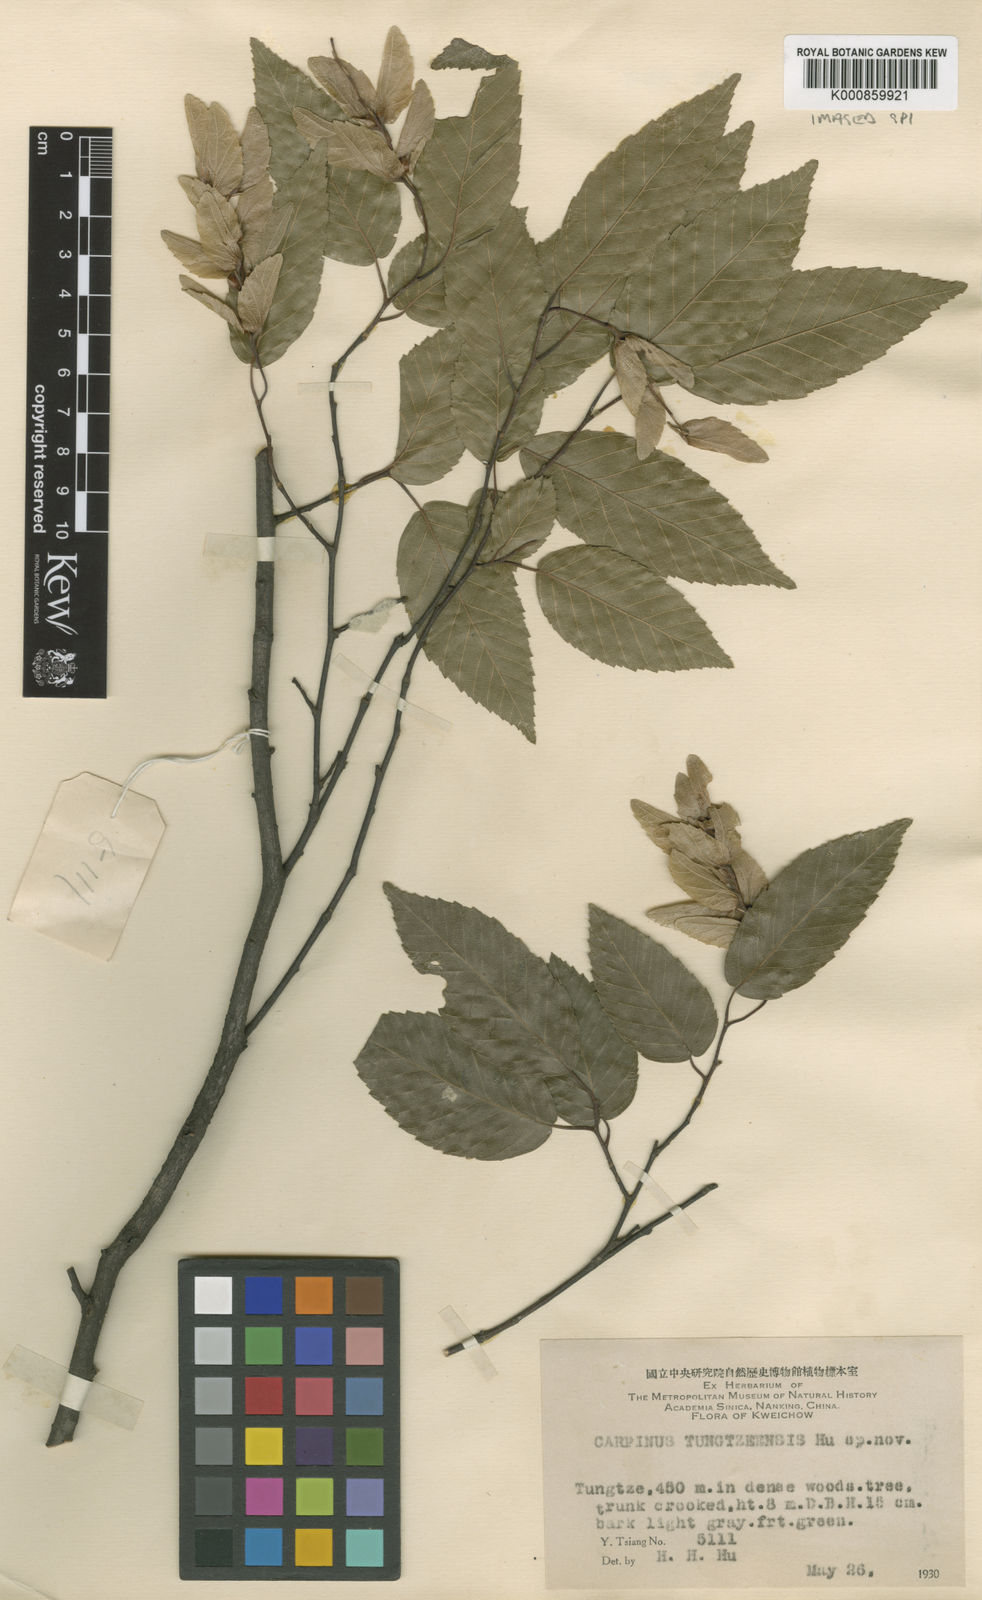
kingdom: Plantae
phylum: Tracheophyta
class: Magnoliopsida
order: Fagales
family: Betulaceae
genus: Carpinus
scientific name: Carpinus pubescens
